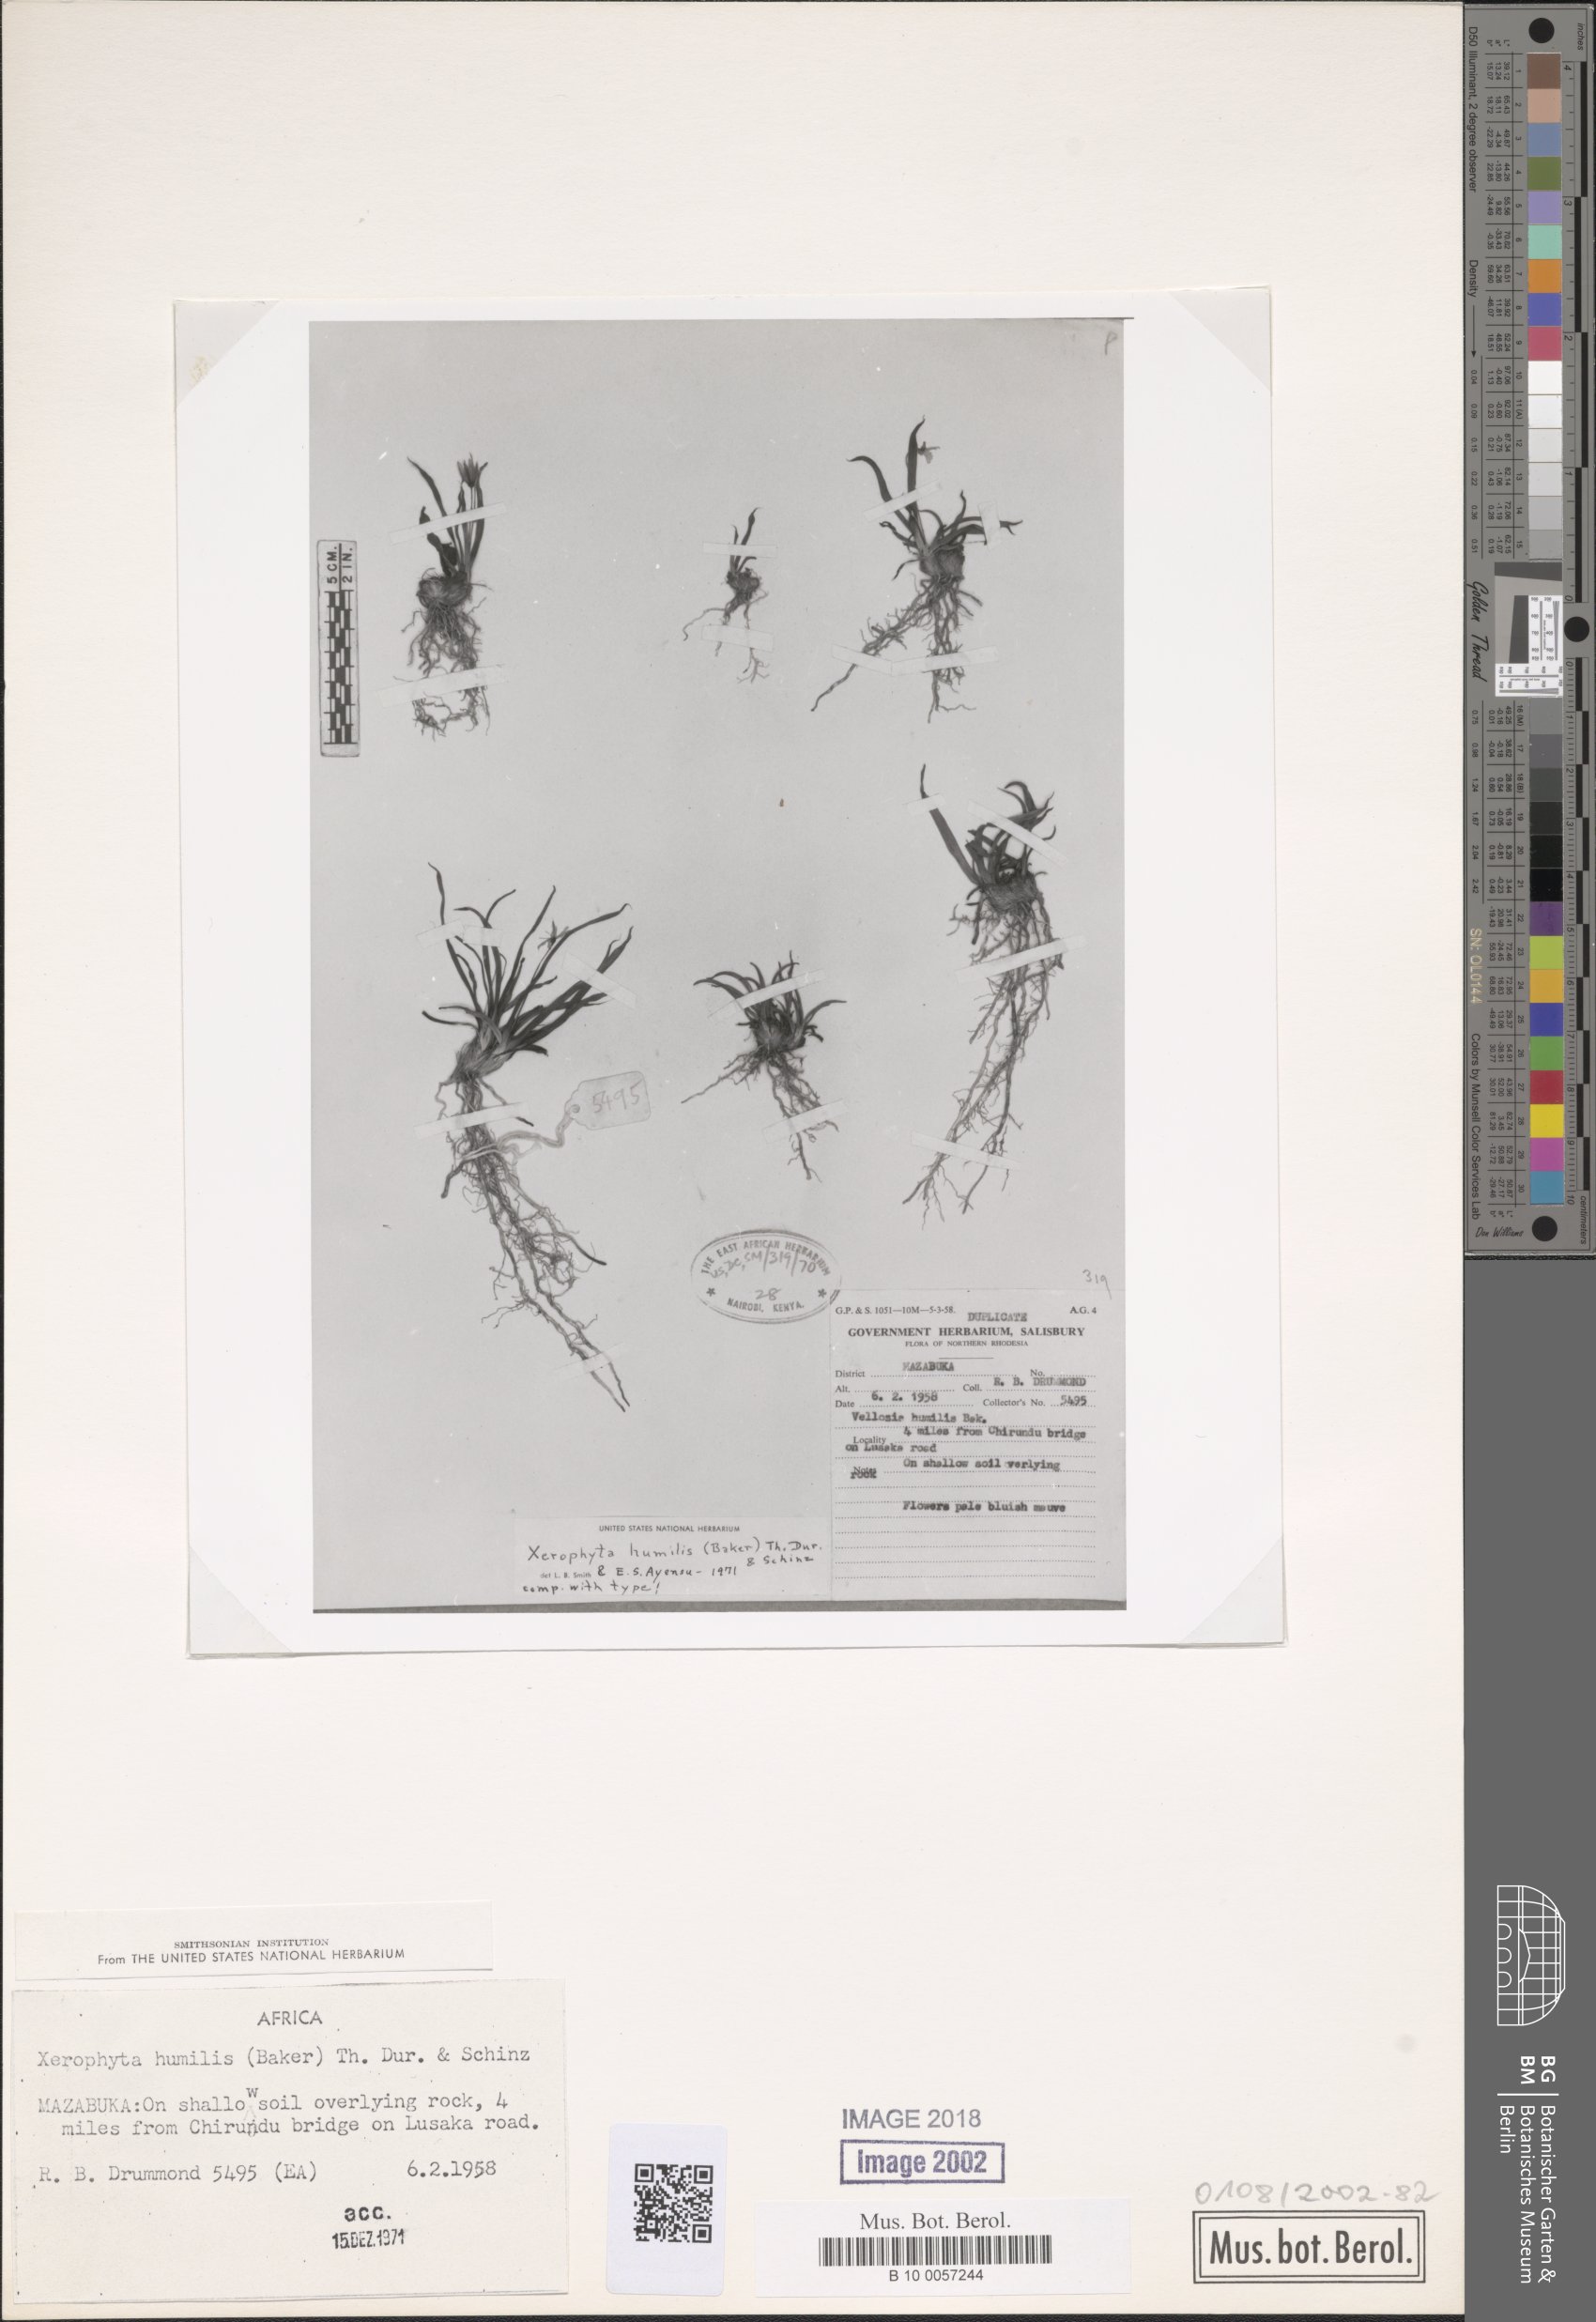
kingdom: Plantae
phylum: Tracheophyta
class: Liliopsida
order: Pandanales
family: Velloziaceae
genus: Xerophyta
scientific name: Xerophyta humilis
